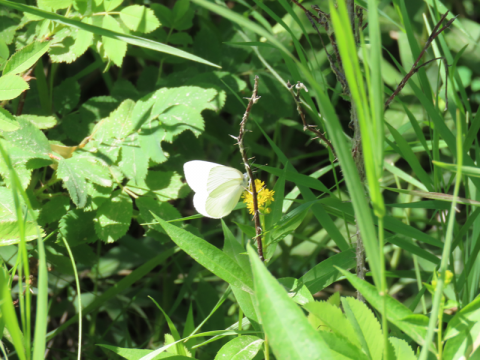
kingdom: Animalia
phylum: Arthropoda
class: Insecta
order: Lepidoptera
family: Pieridae
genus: Pieris
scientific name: Pieris rapae
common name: Cabbage White
